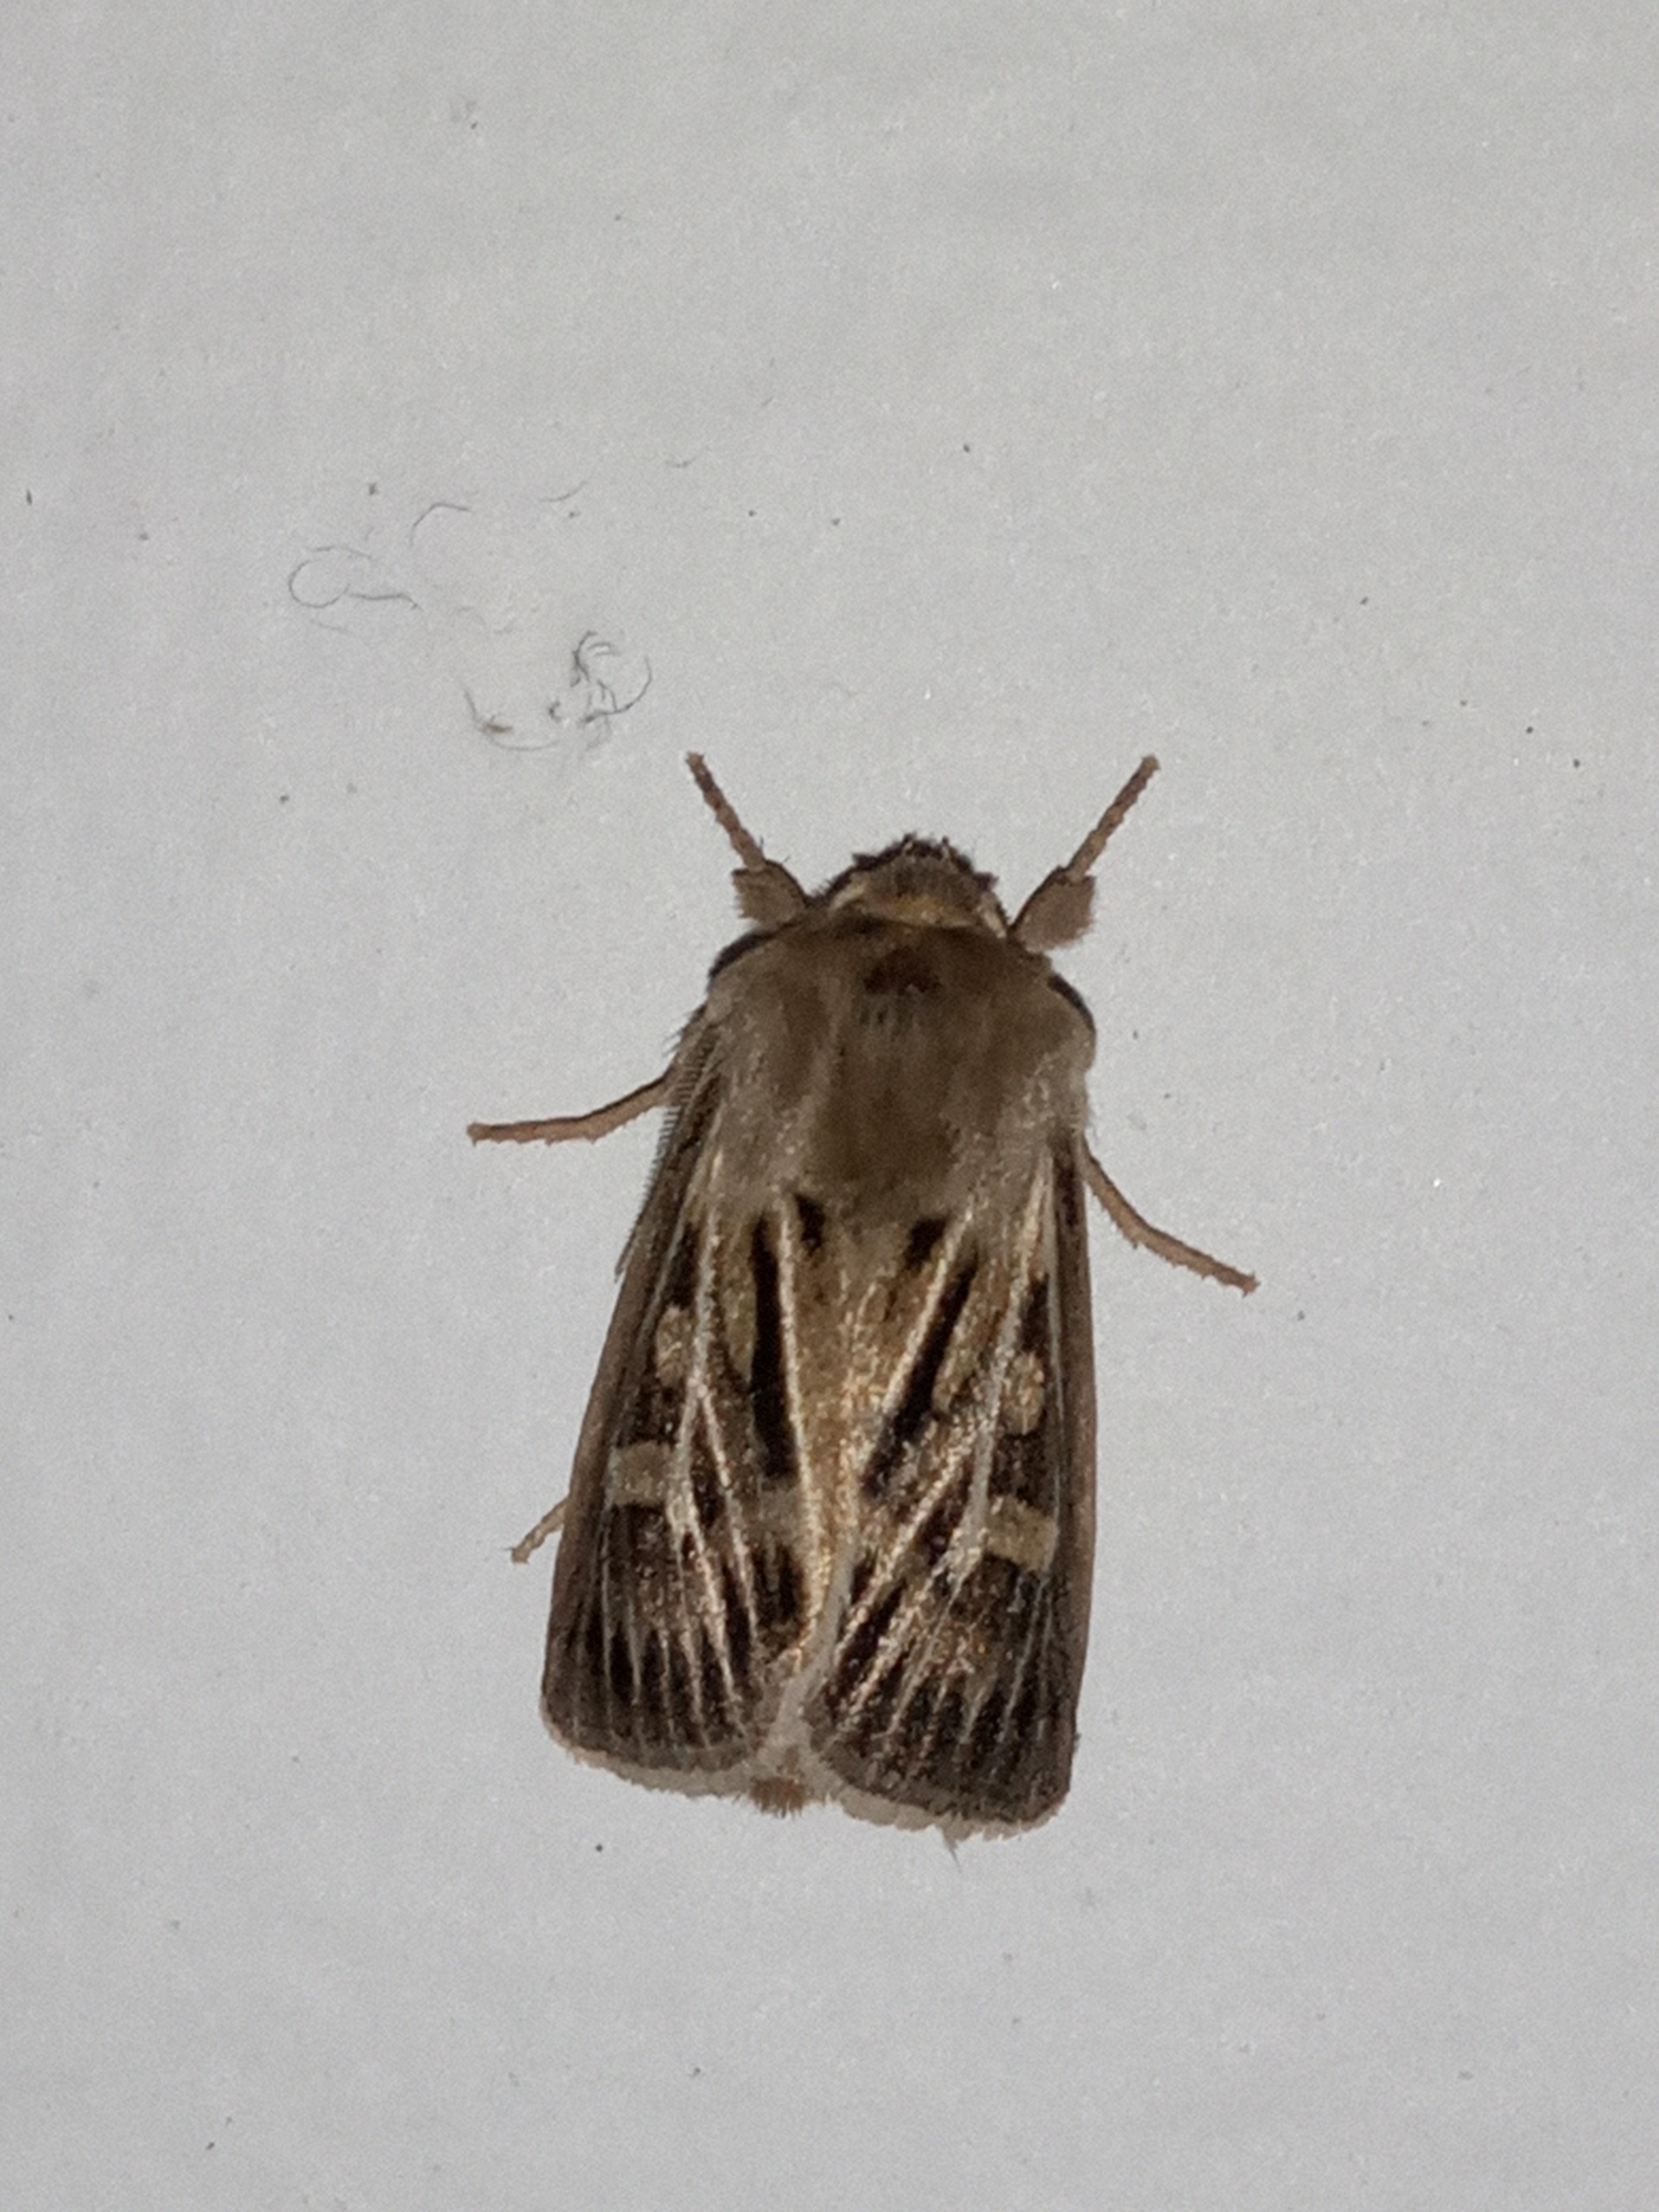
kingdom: Animalia
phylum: Arthropoda
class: Insecta
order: Lepidoptera
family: Noctuidae
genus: Cerapteryx
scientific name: Cerapteryx graminis
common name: Mosebunkeugle
